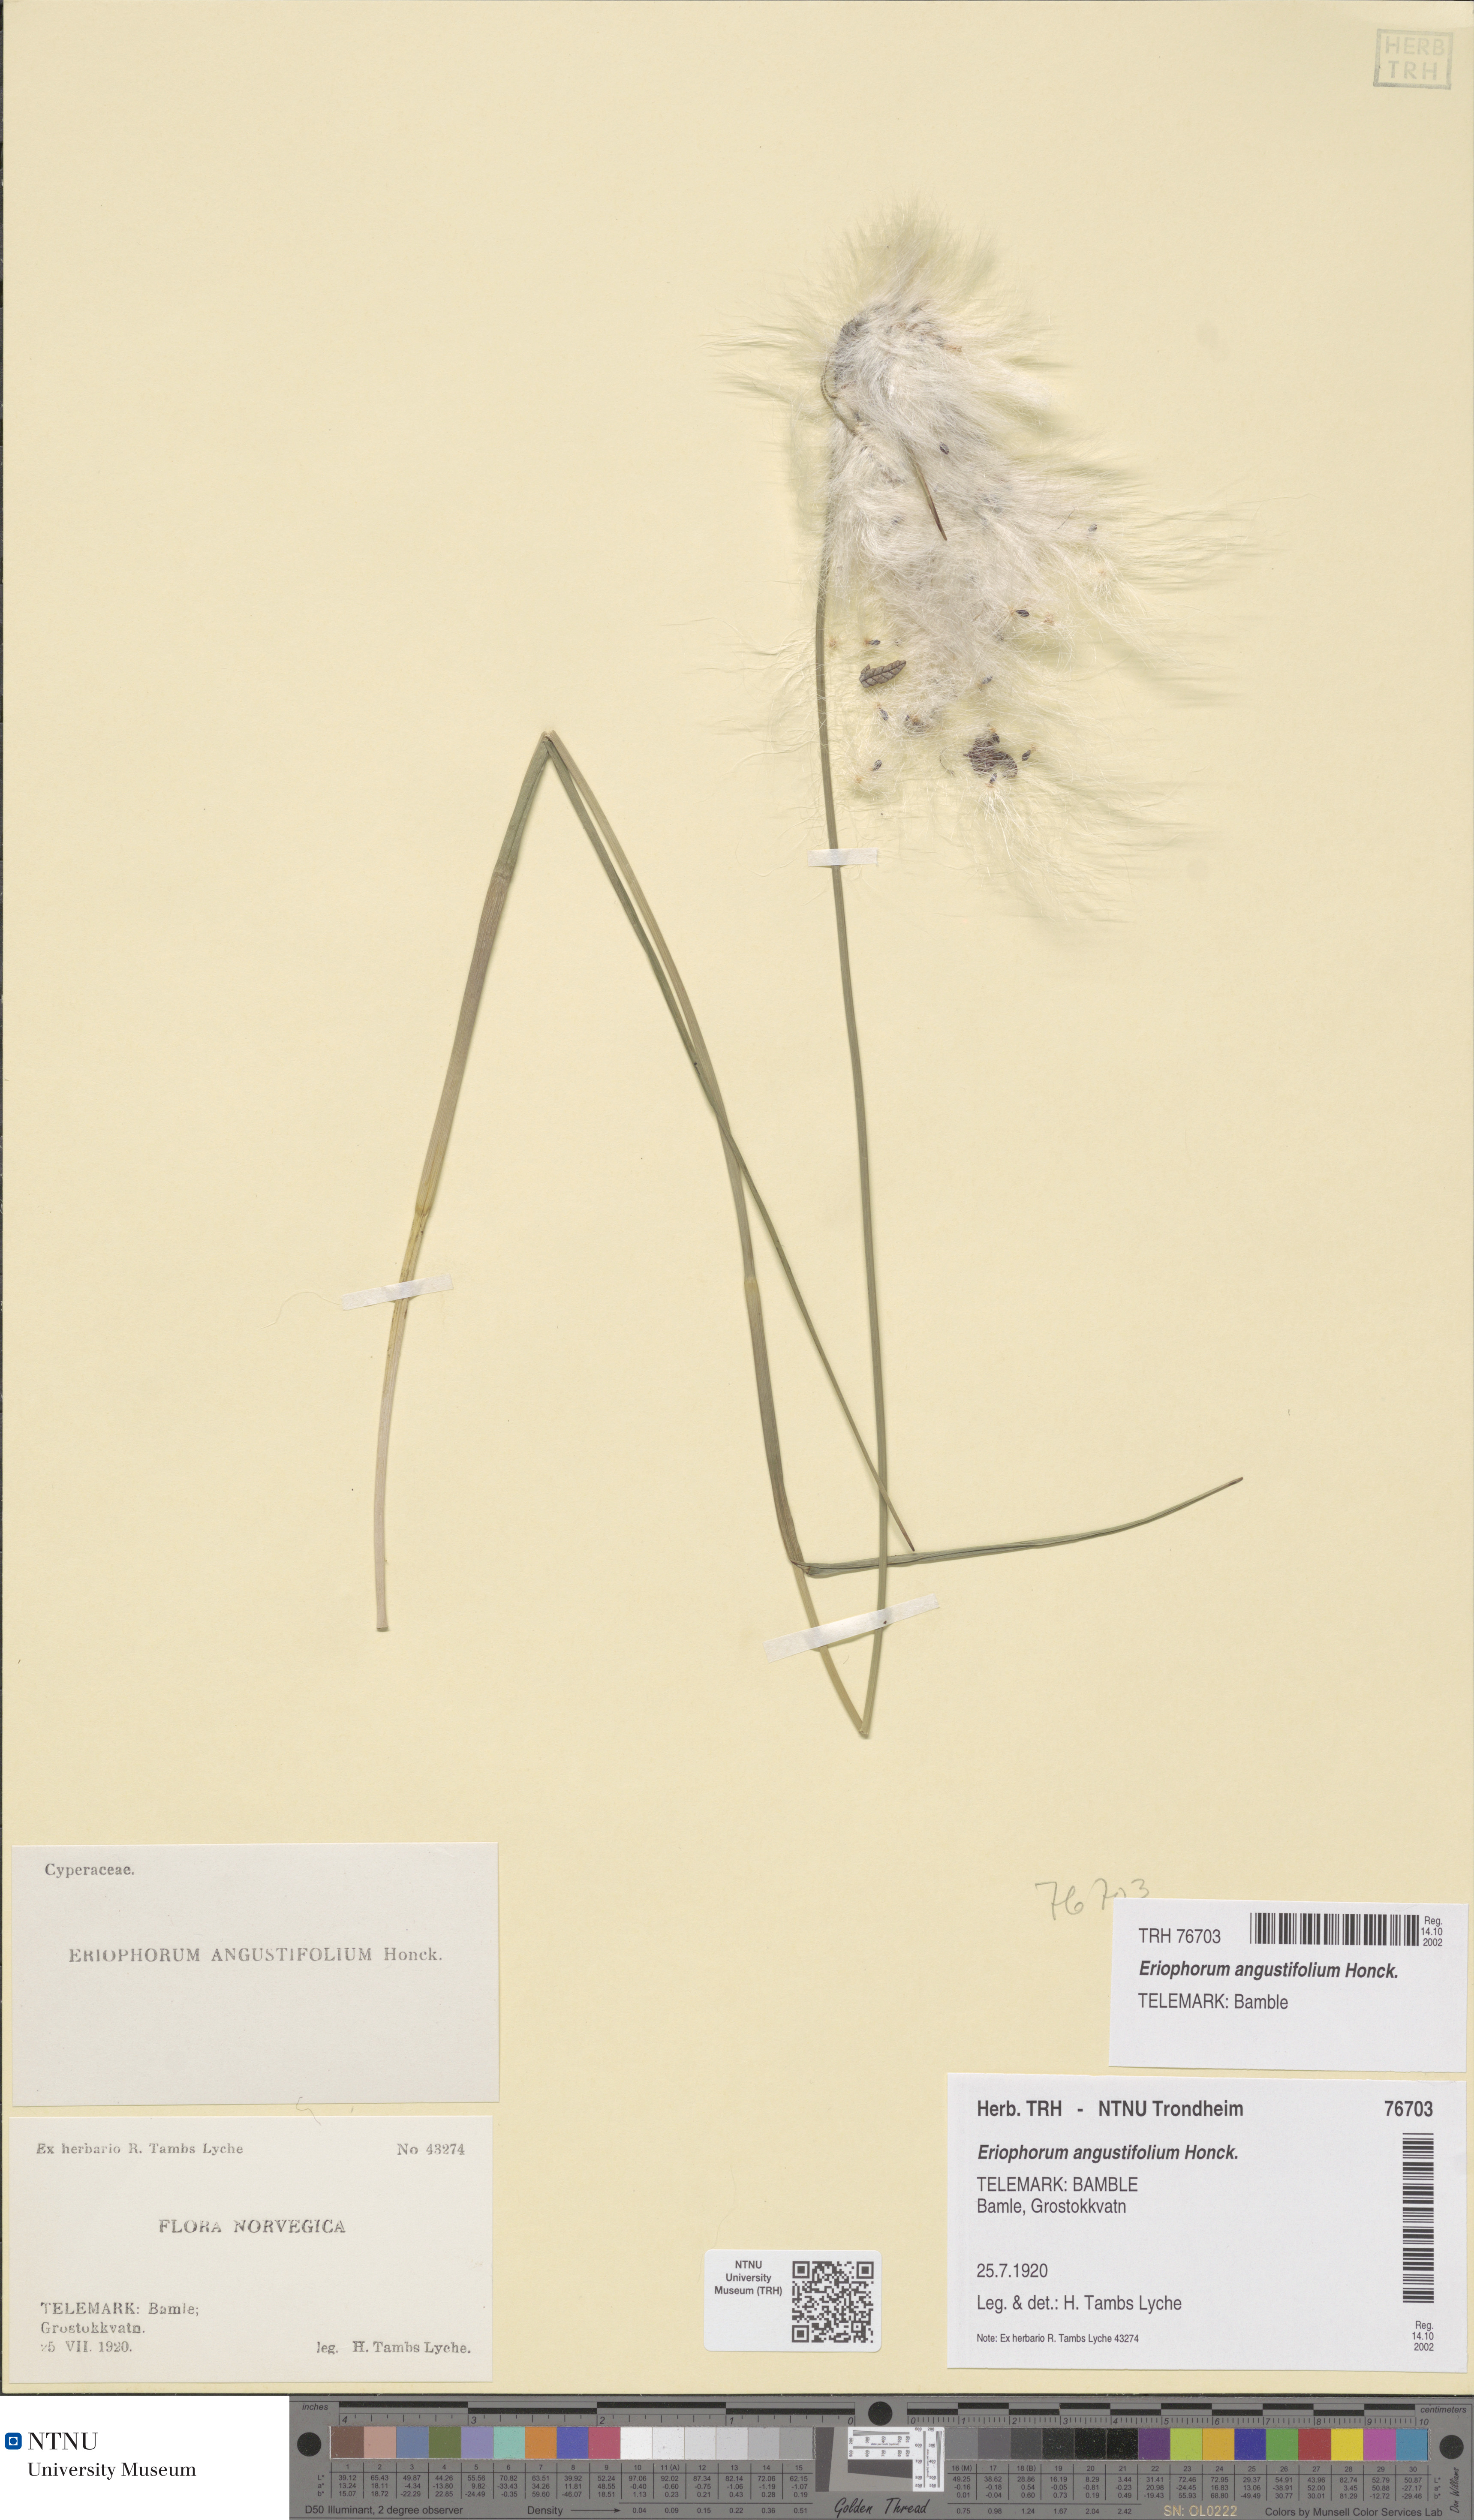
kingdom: Plantae
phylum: Tracheophyta
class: Liliopsida
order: Poales
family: Cyperaceae
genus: Eriophorum
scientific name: Eriophorum angustifolium
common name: Common cottongrass
